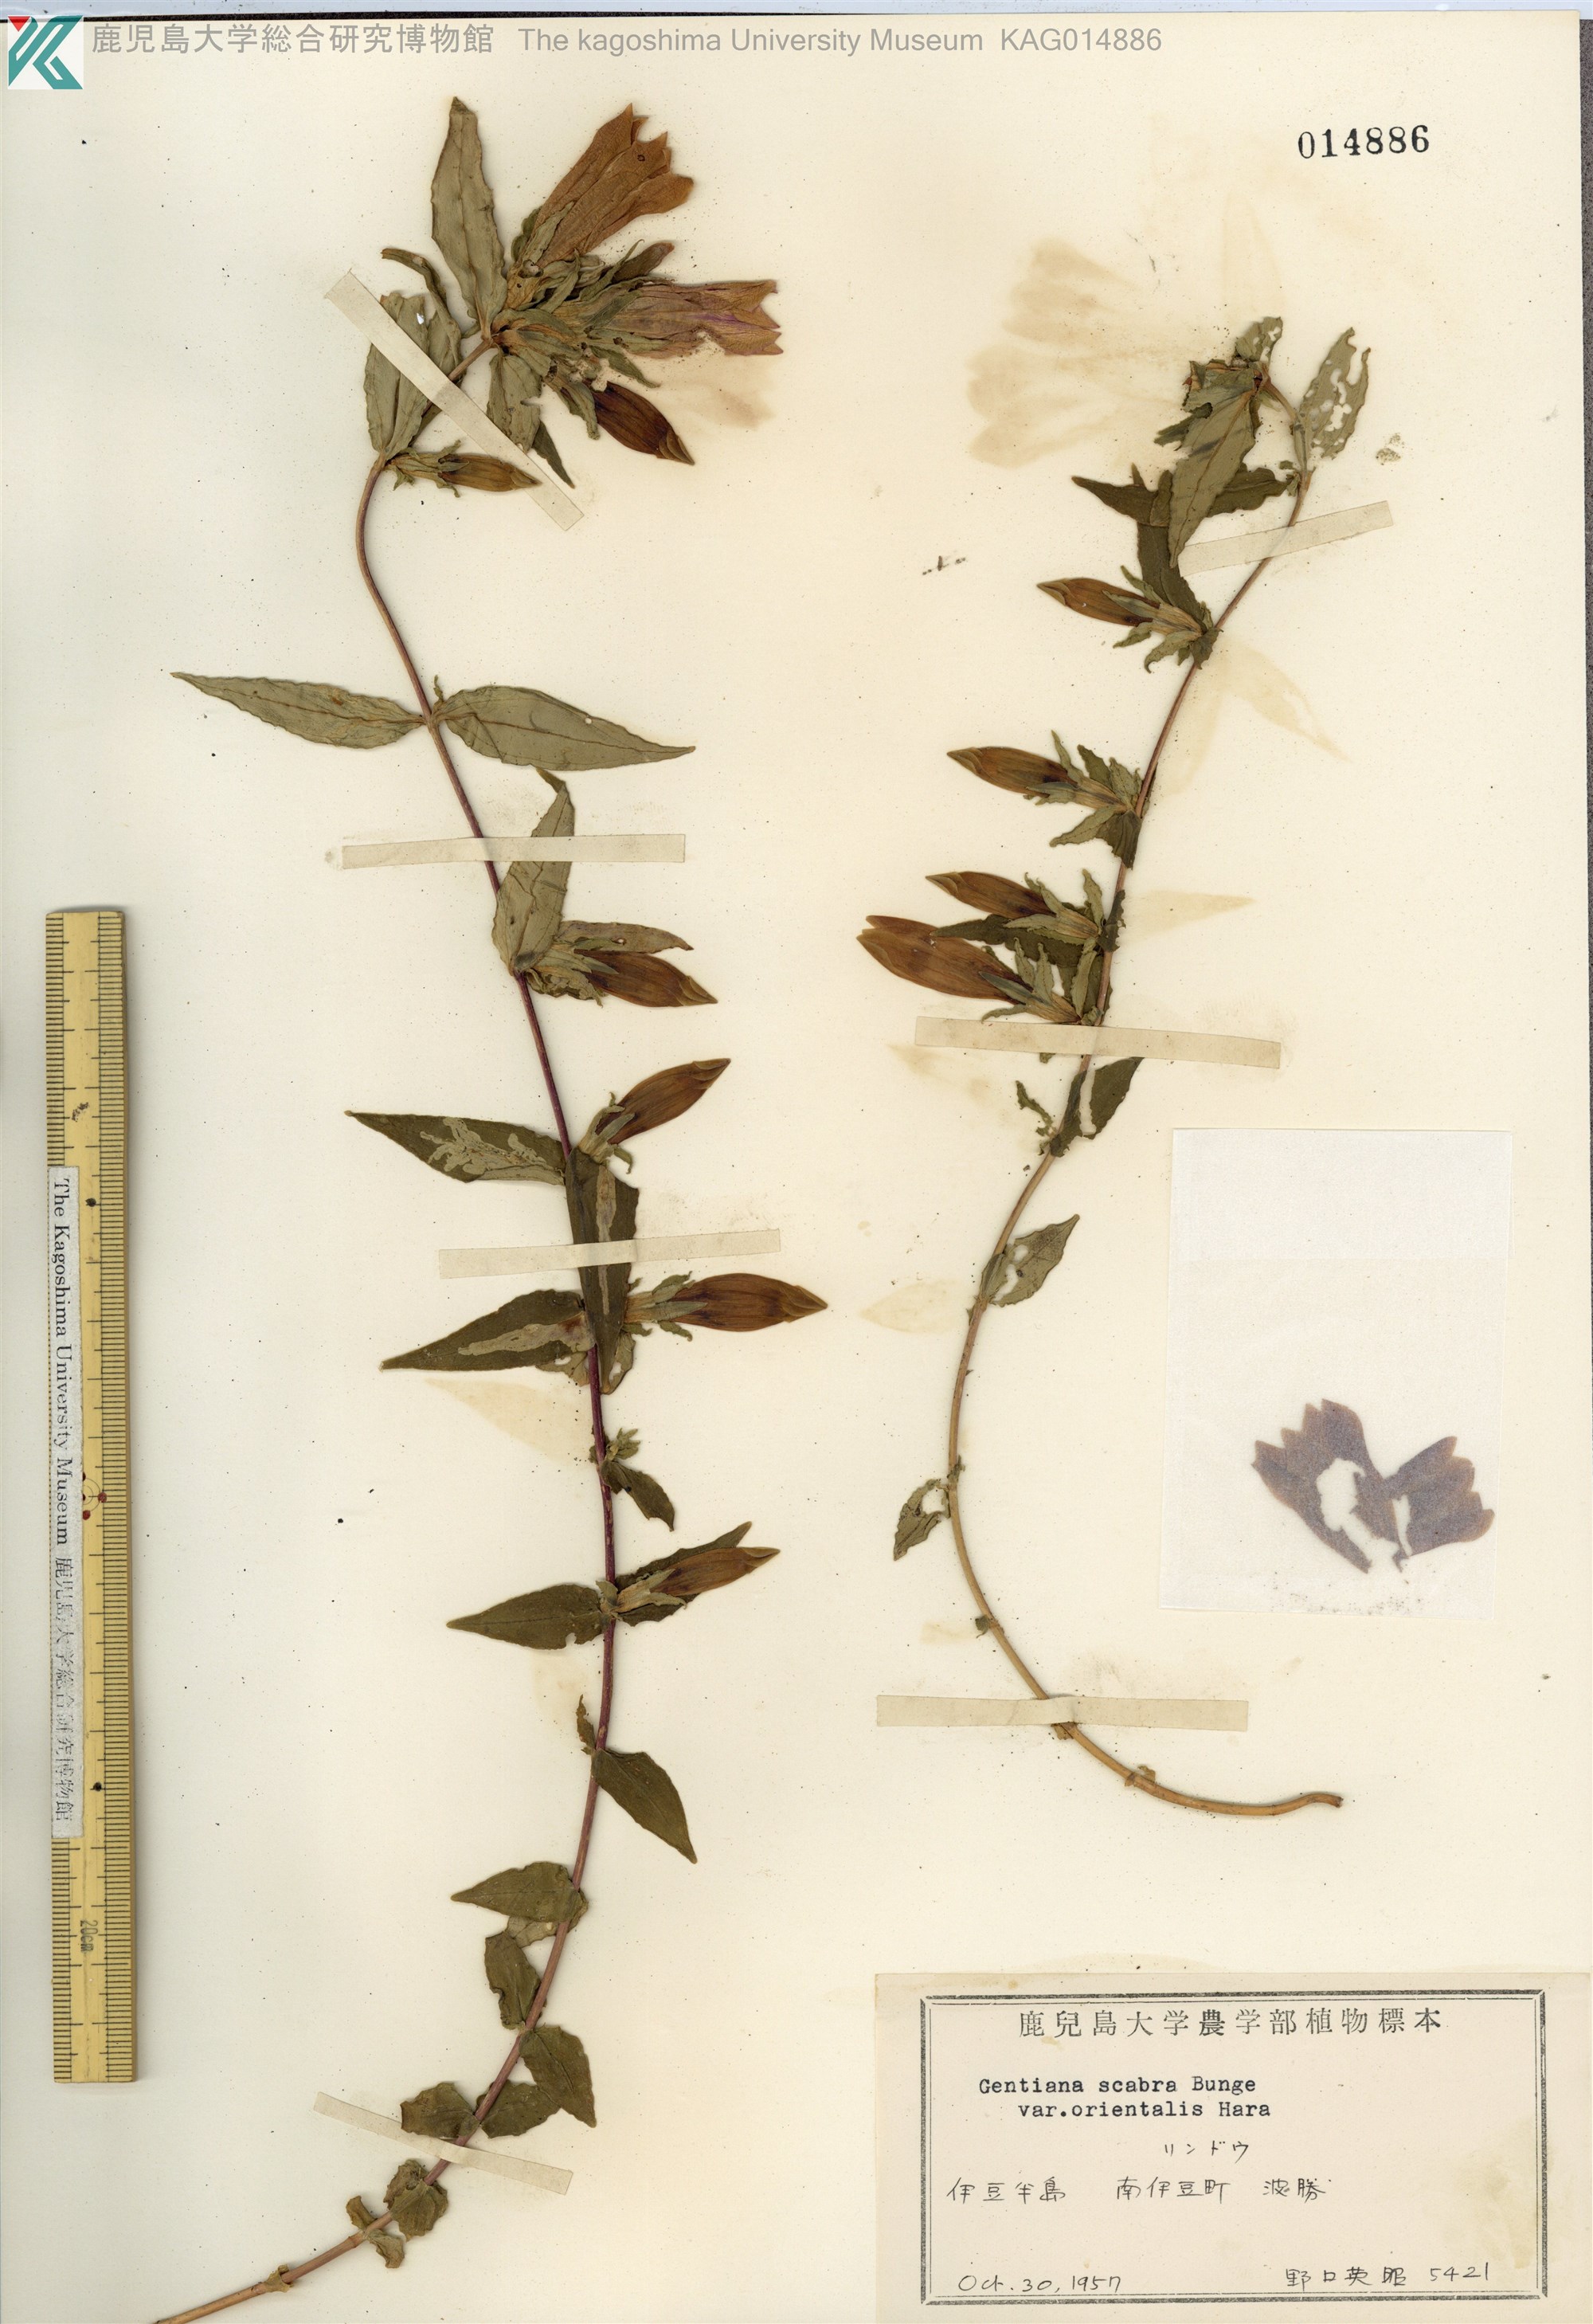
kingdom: Plantae
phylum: Tracheophyta
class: Magnoliopsida
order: Gentianales
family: Gentianaceae
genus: Gentiana
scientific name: Gentiana scabra
